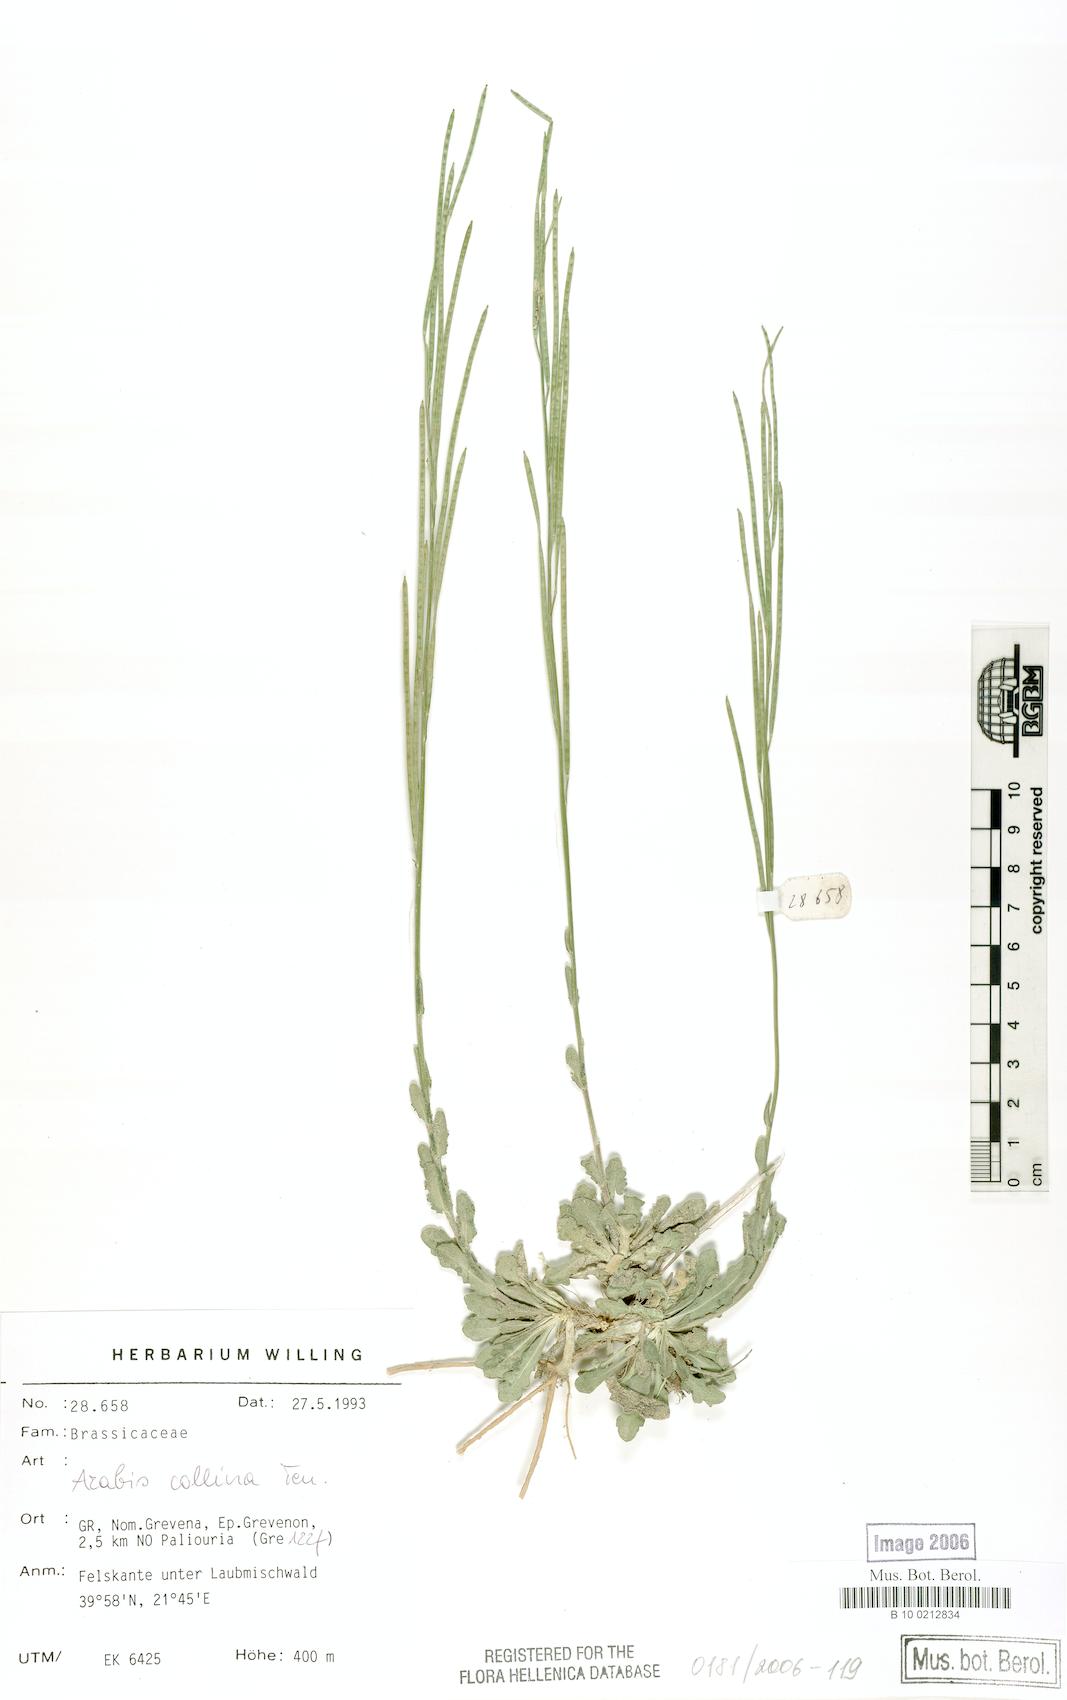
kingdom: Plantae
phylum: Tracheophyta
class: Magnoliopsida
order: Brassicales
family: Brassicaceae
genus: Arabis
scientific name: Arabis collina
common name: Rosy cress
